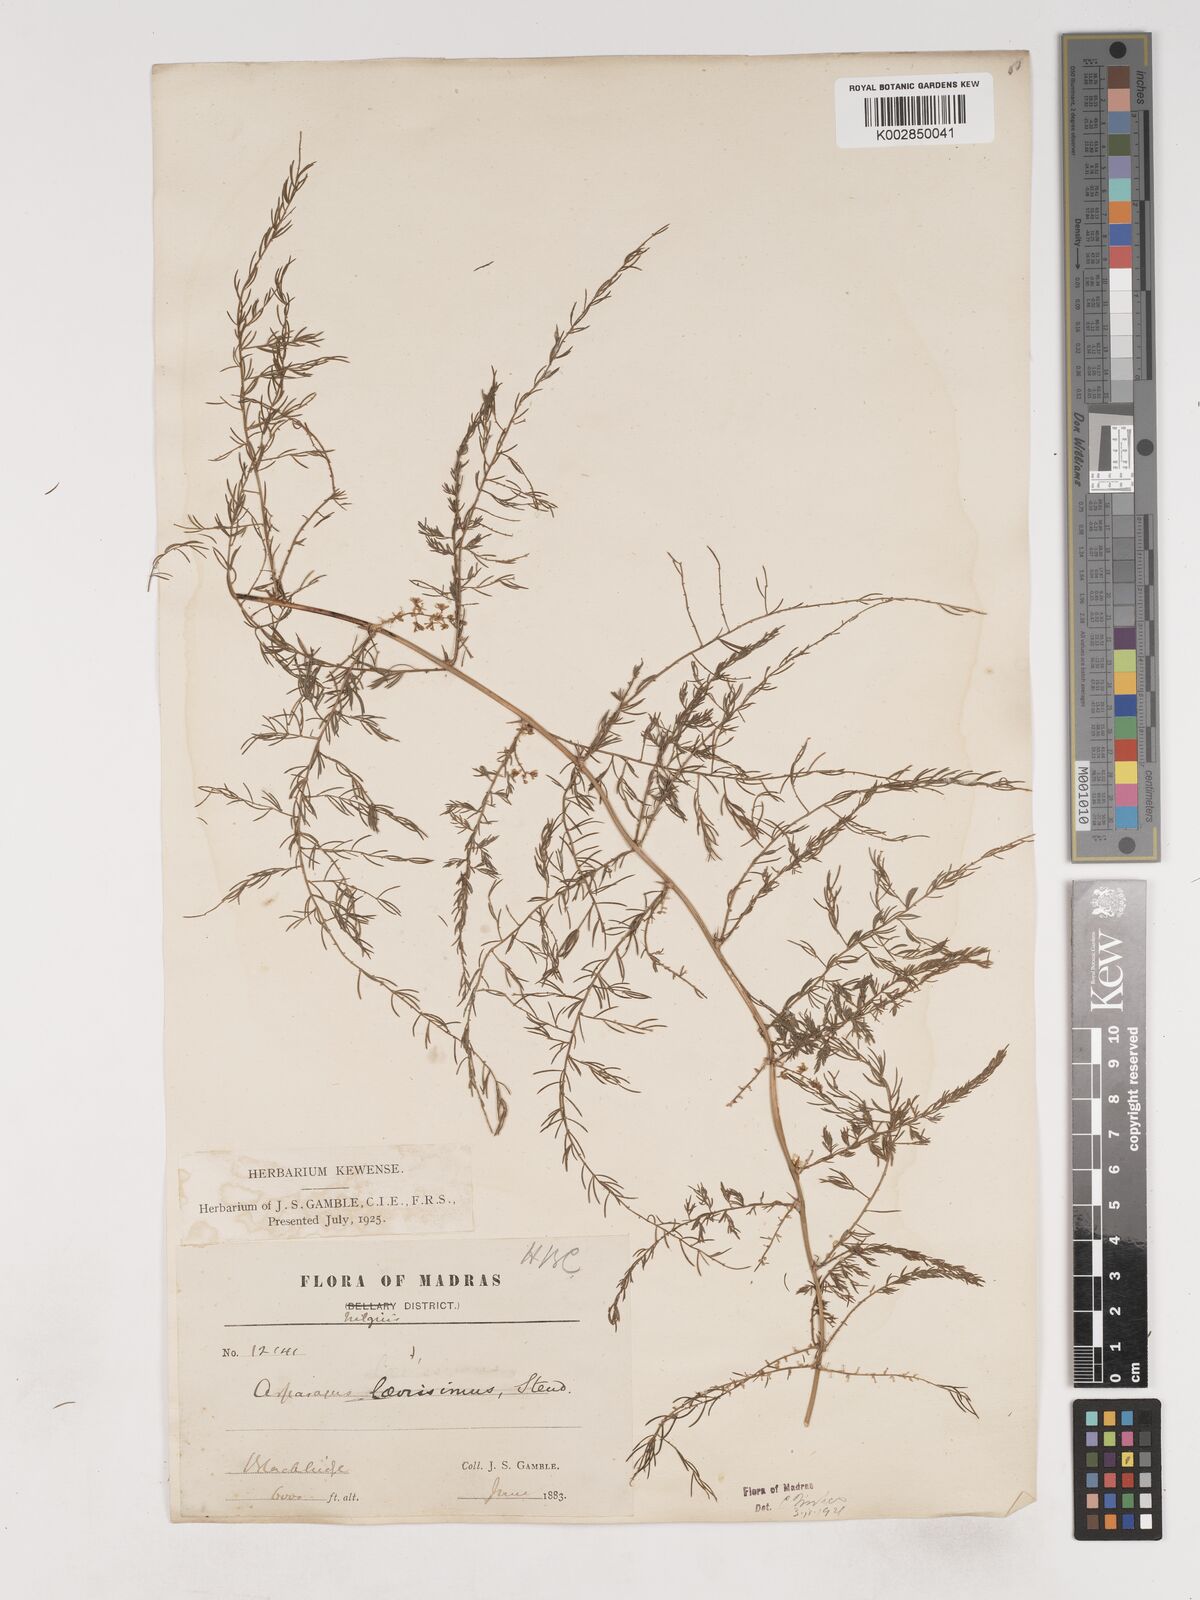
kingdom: Plantae
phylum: Tracheophyta
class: Liliopsida
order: Asparagales
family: Asparagaceae
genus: Asparagus
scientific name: Asparagus laevissimus
